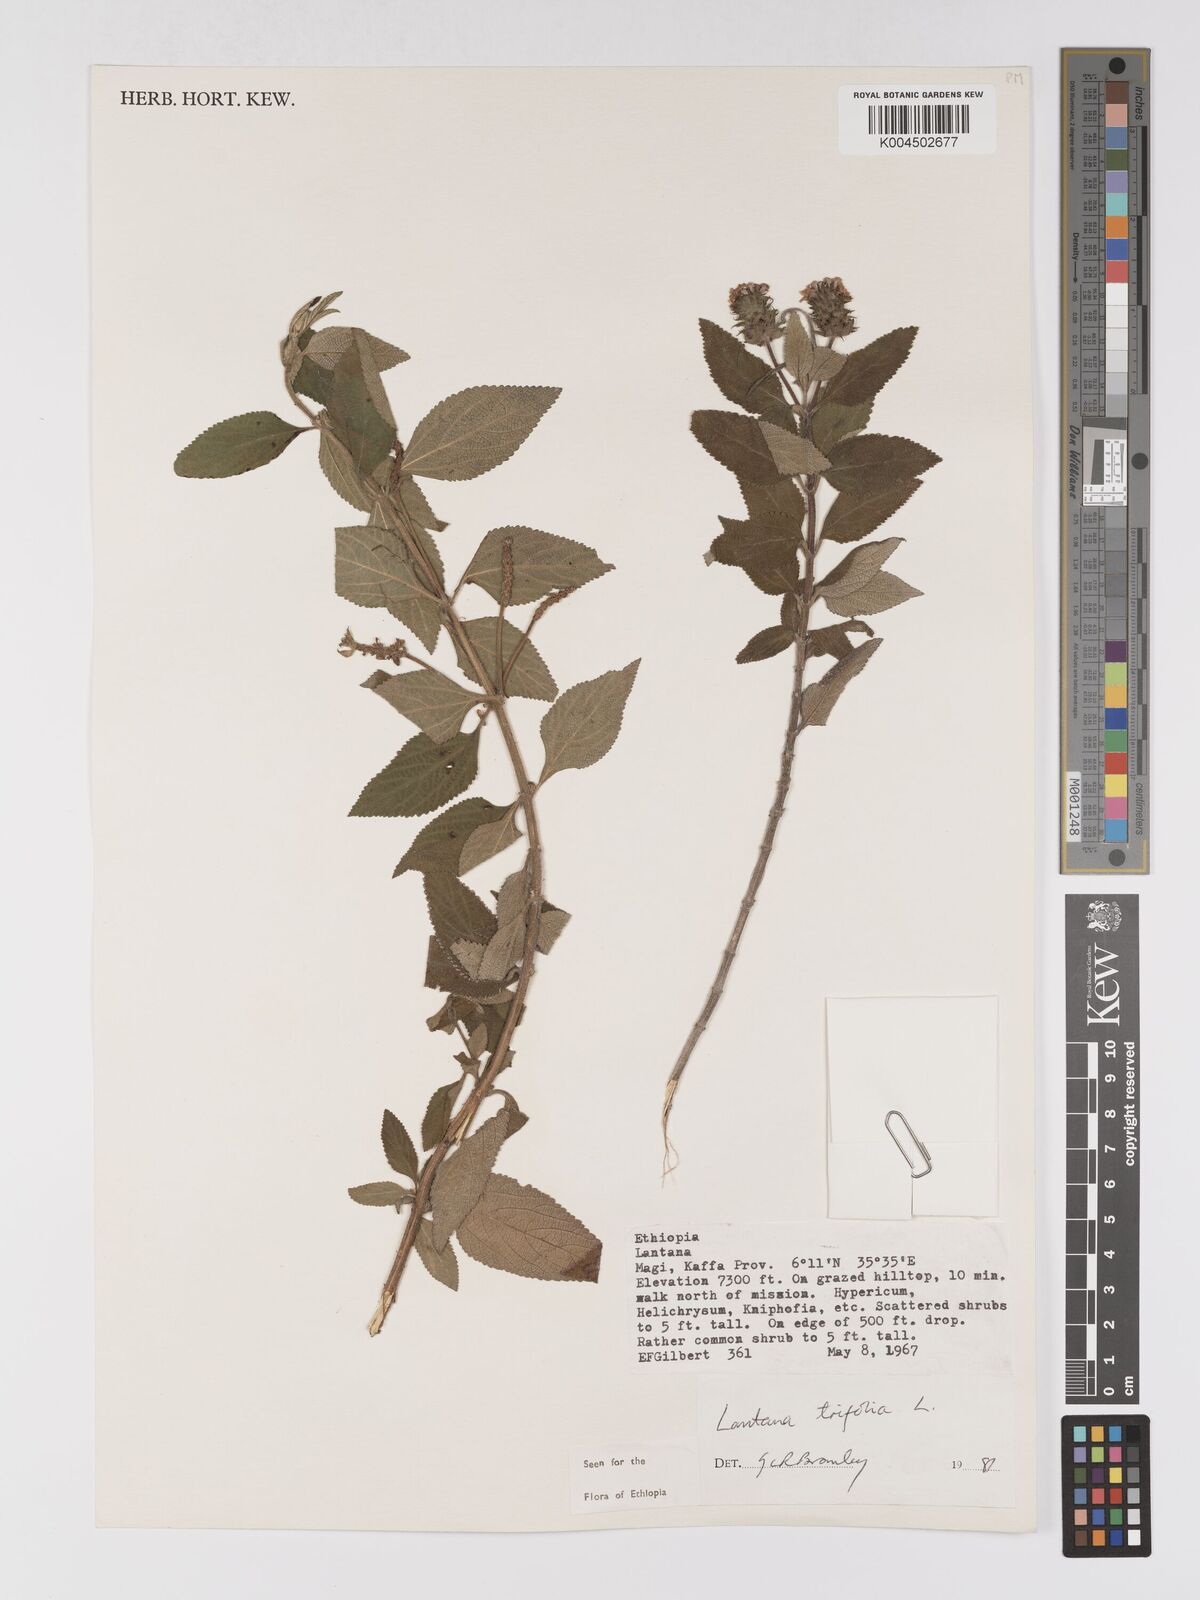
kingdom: Plantae
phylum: Tracheophyta
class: Magnoliopsida
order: Lamiales
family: Verbenaceae
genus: Lantana
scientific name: Lantana trifolia
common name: Sweet-sage
